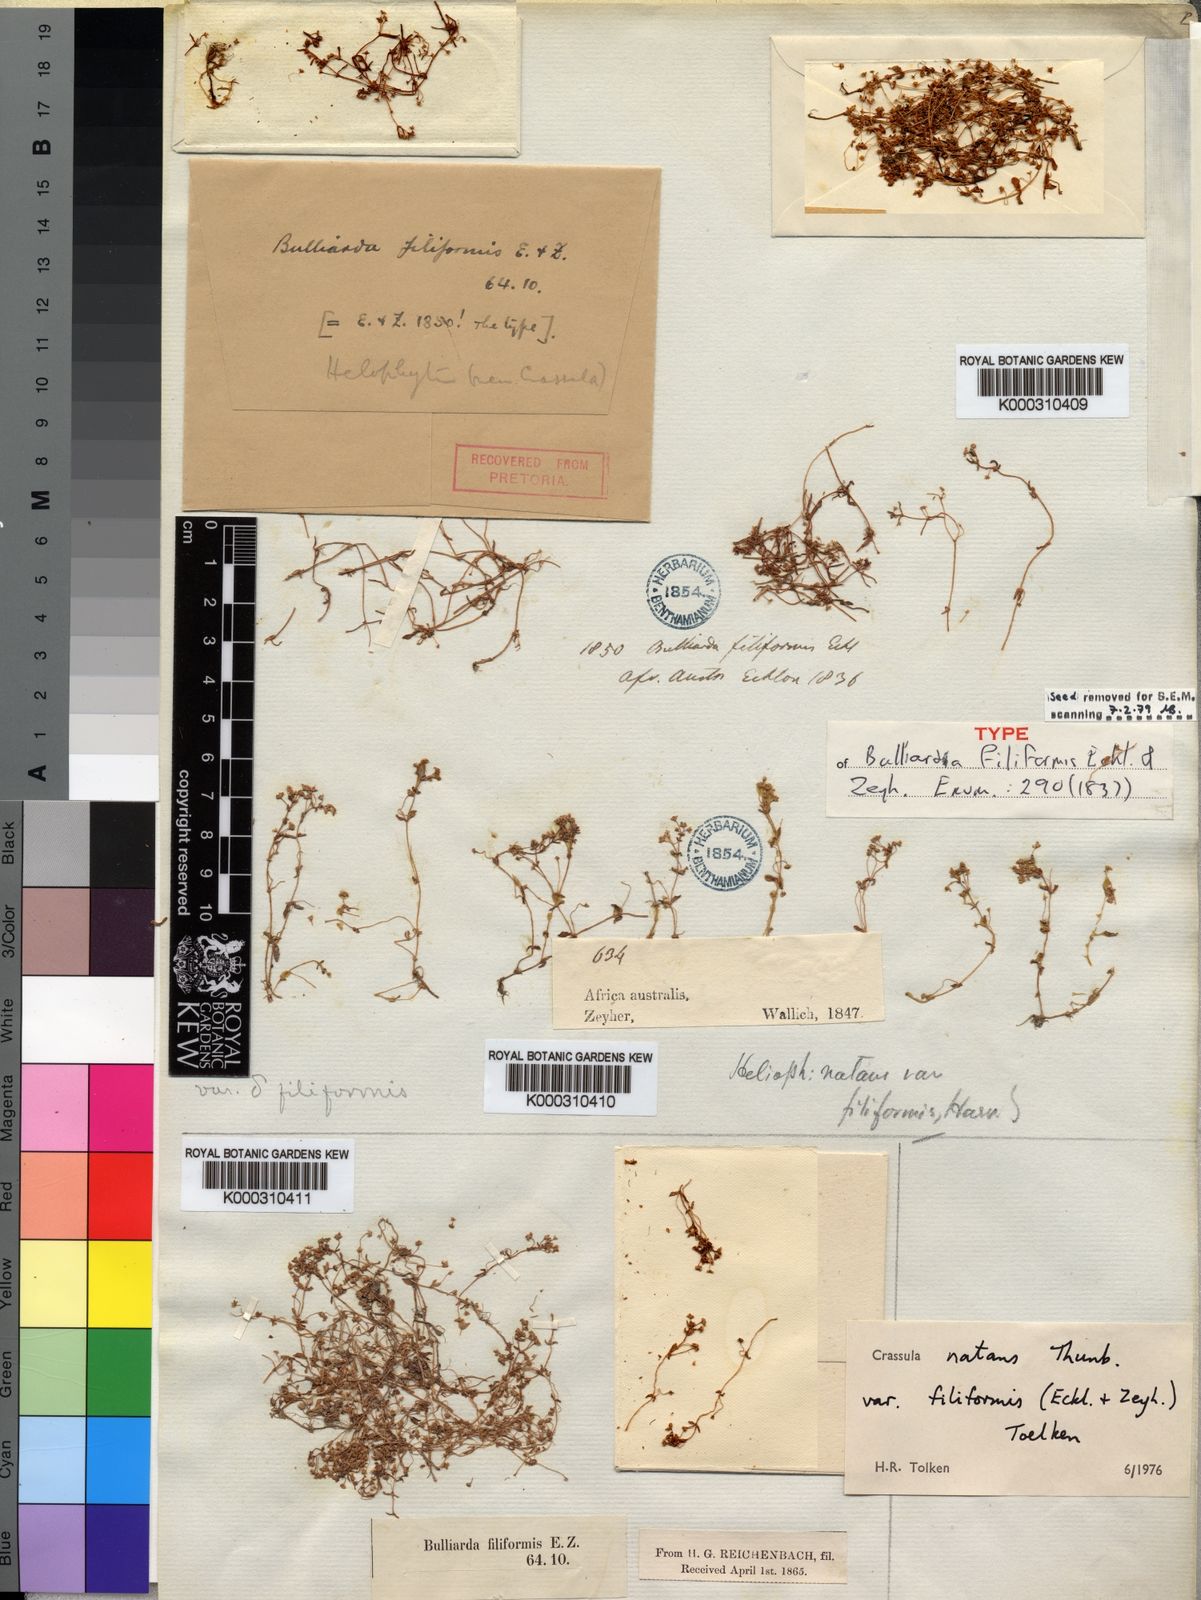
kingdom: Plantae
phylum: Tracheophyta
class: Magnoliopsida
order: Saxifragales
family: Crassulaceae
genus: Crassula
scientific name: Crassula natans
